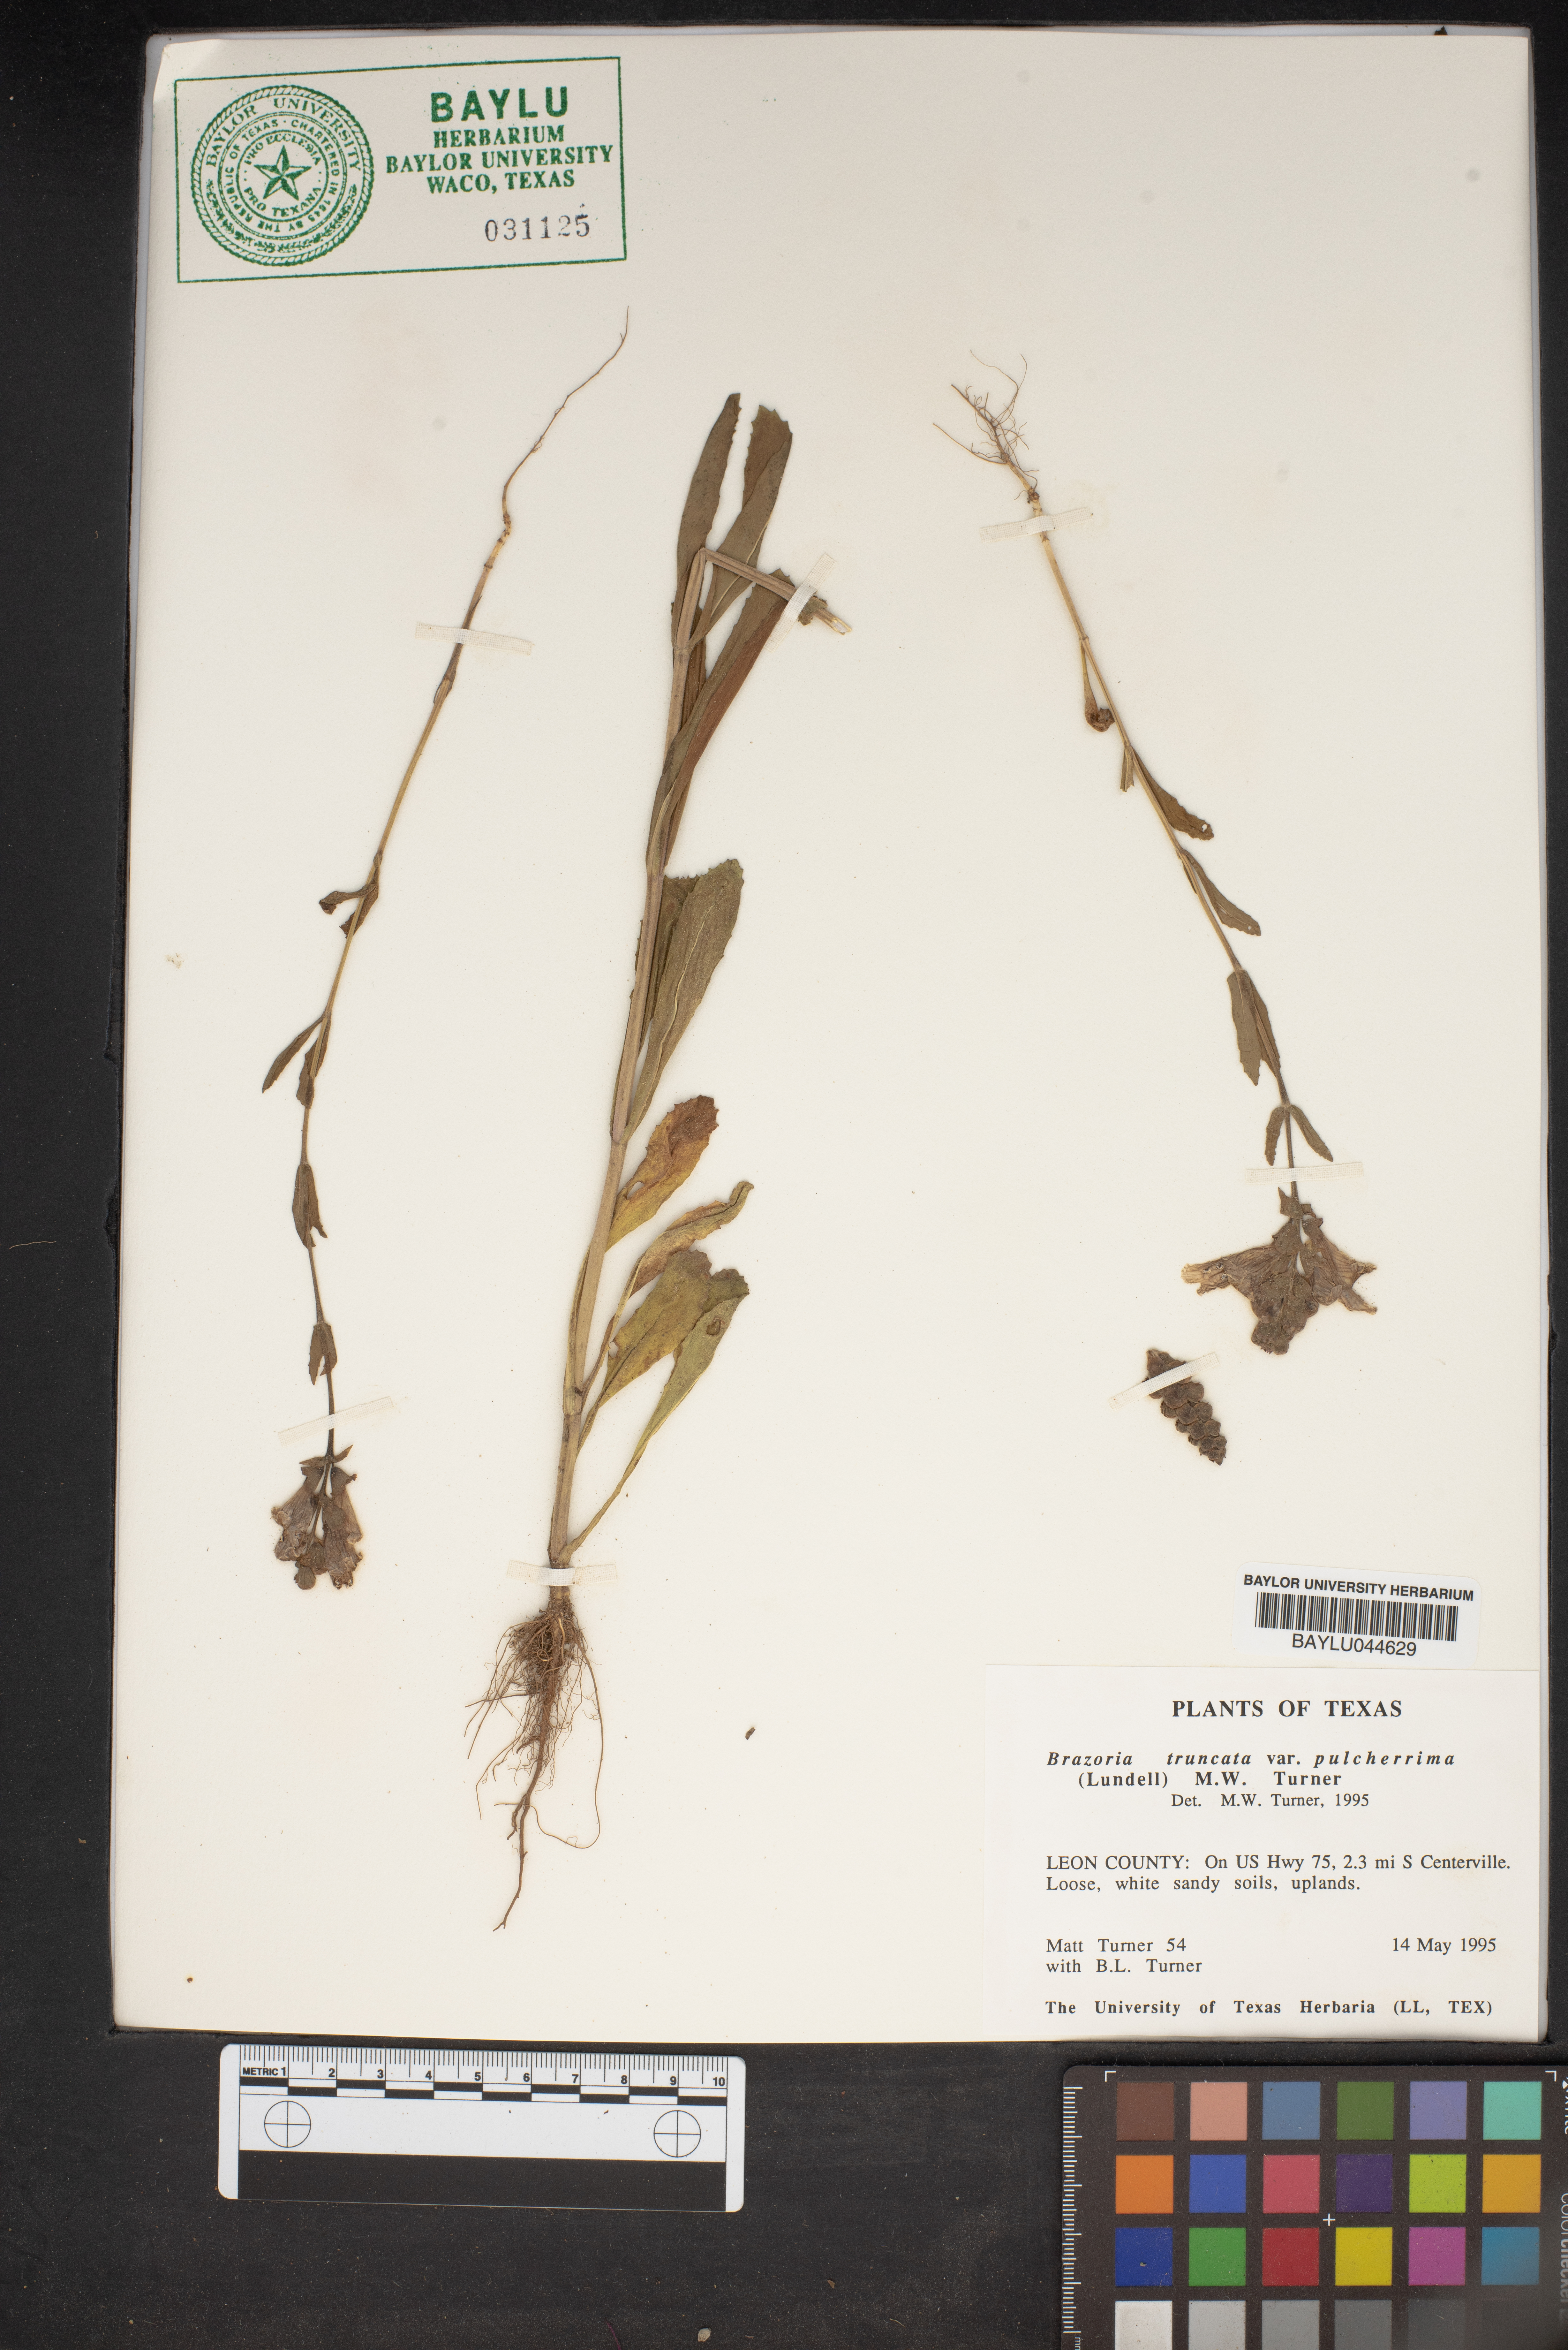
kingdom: Plantae
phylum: Tracheophyta
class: Magnoliopsida
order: Lamiales
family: Lamiaceae
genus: Brazoria
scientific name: Brazoria truncata
